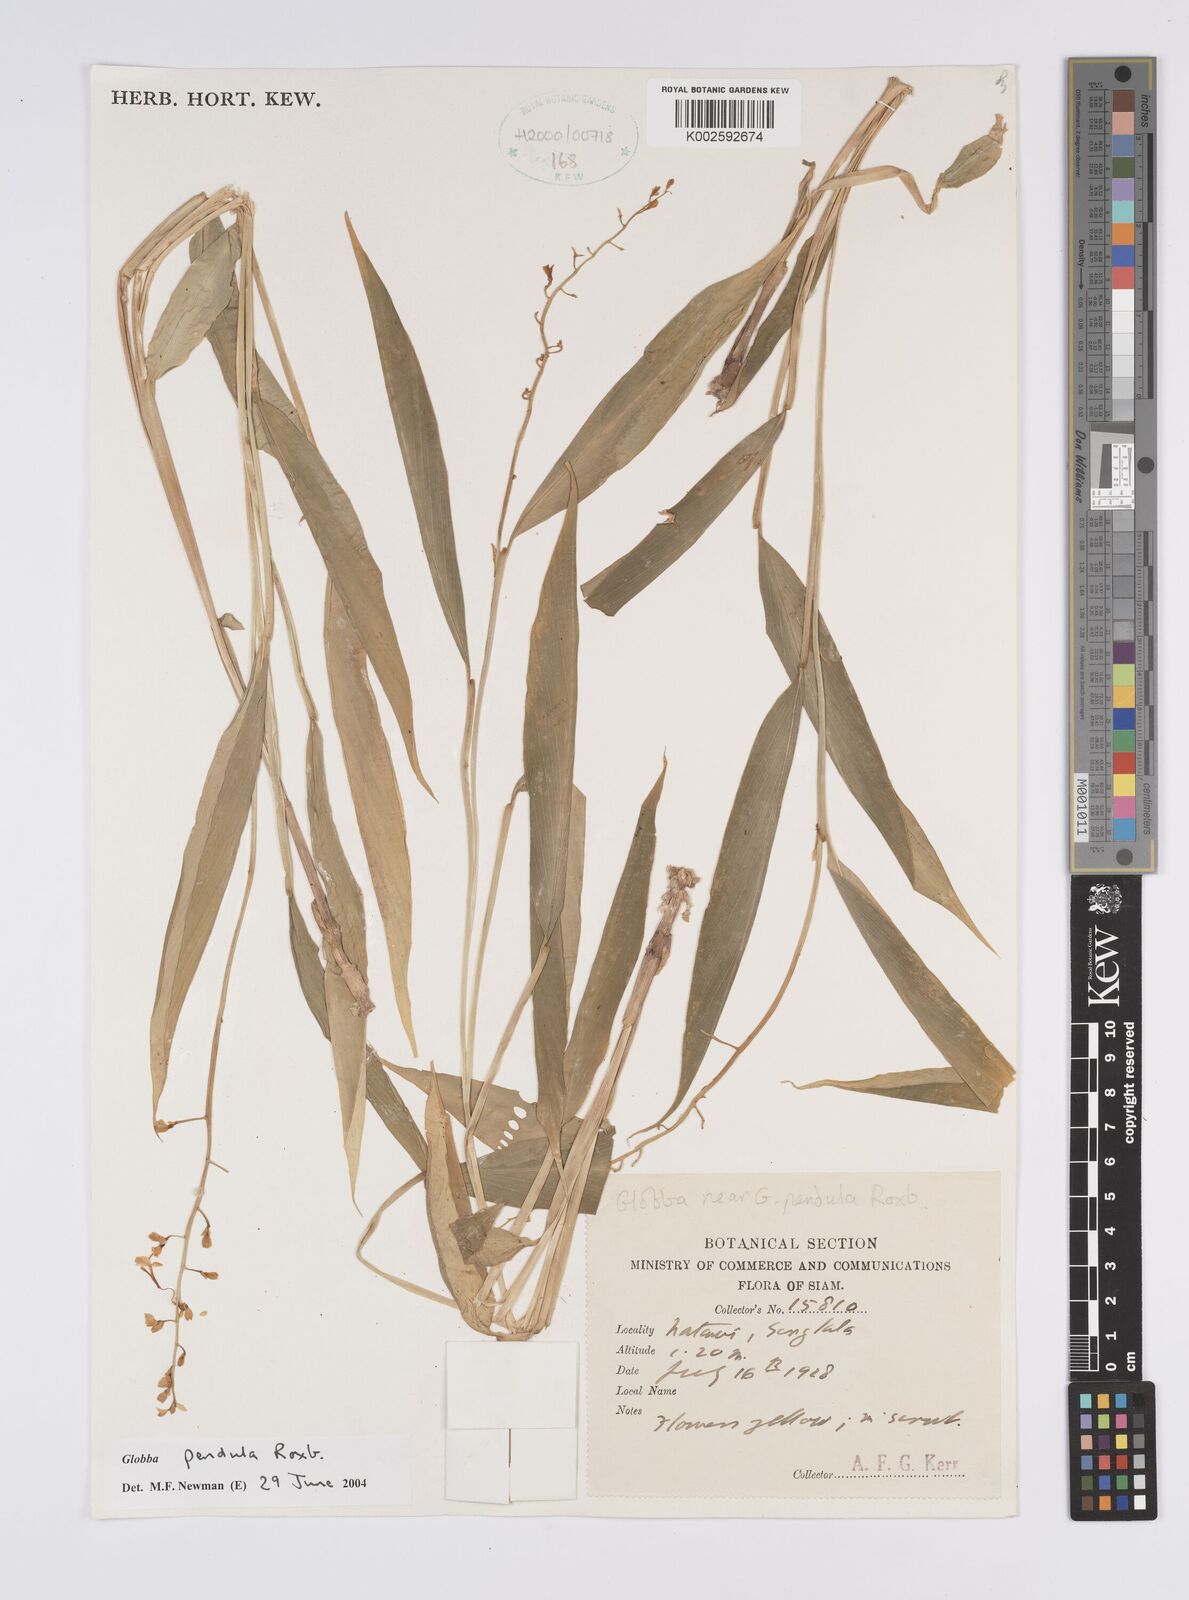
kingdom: Plantae
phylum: Tracheophyta
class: Liliopsida
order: Zingiberales
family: Zingiberaceae
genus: Globba
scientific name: Globba pendula
